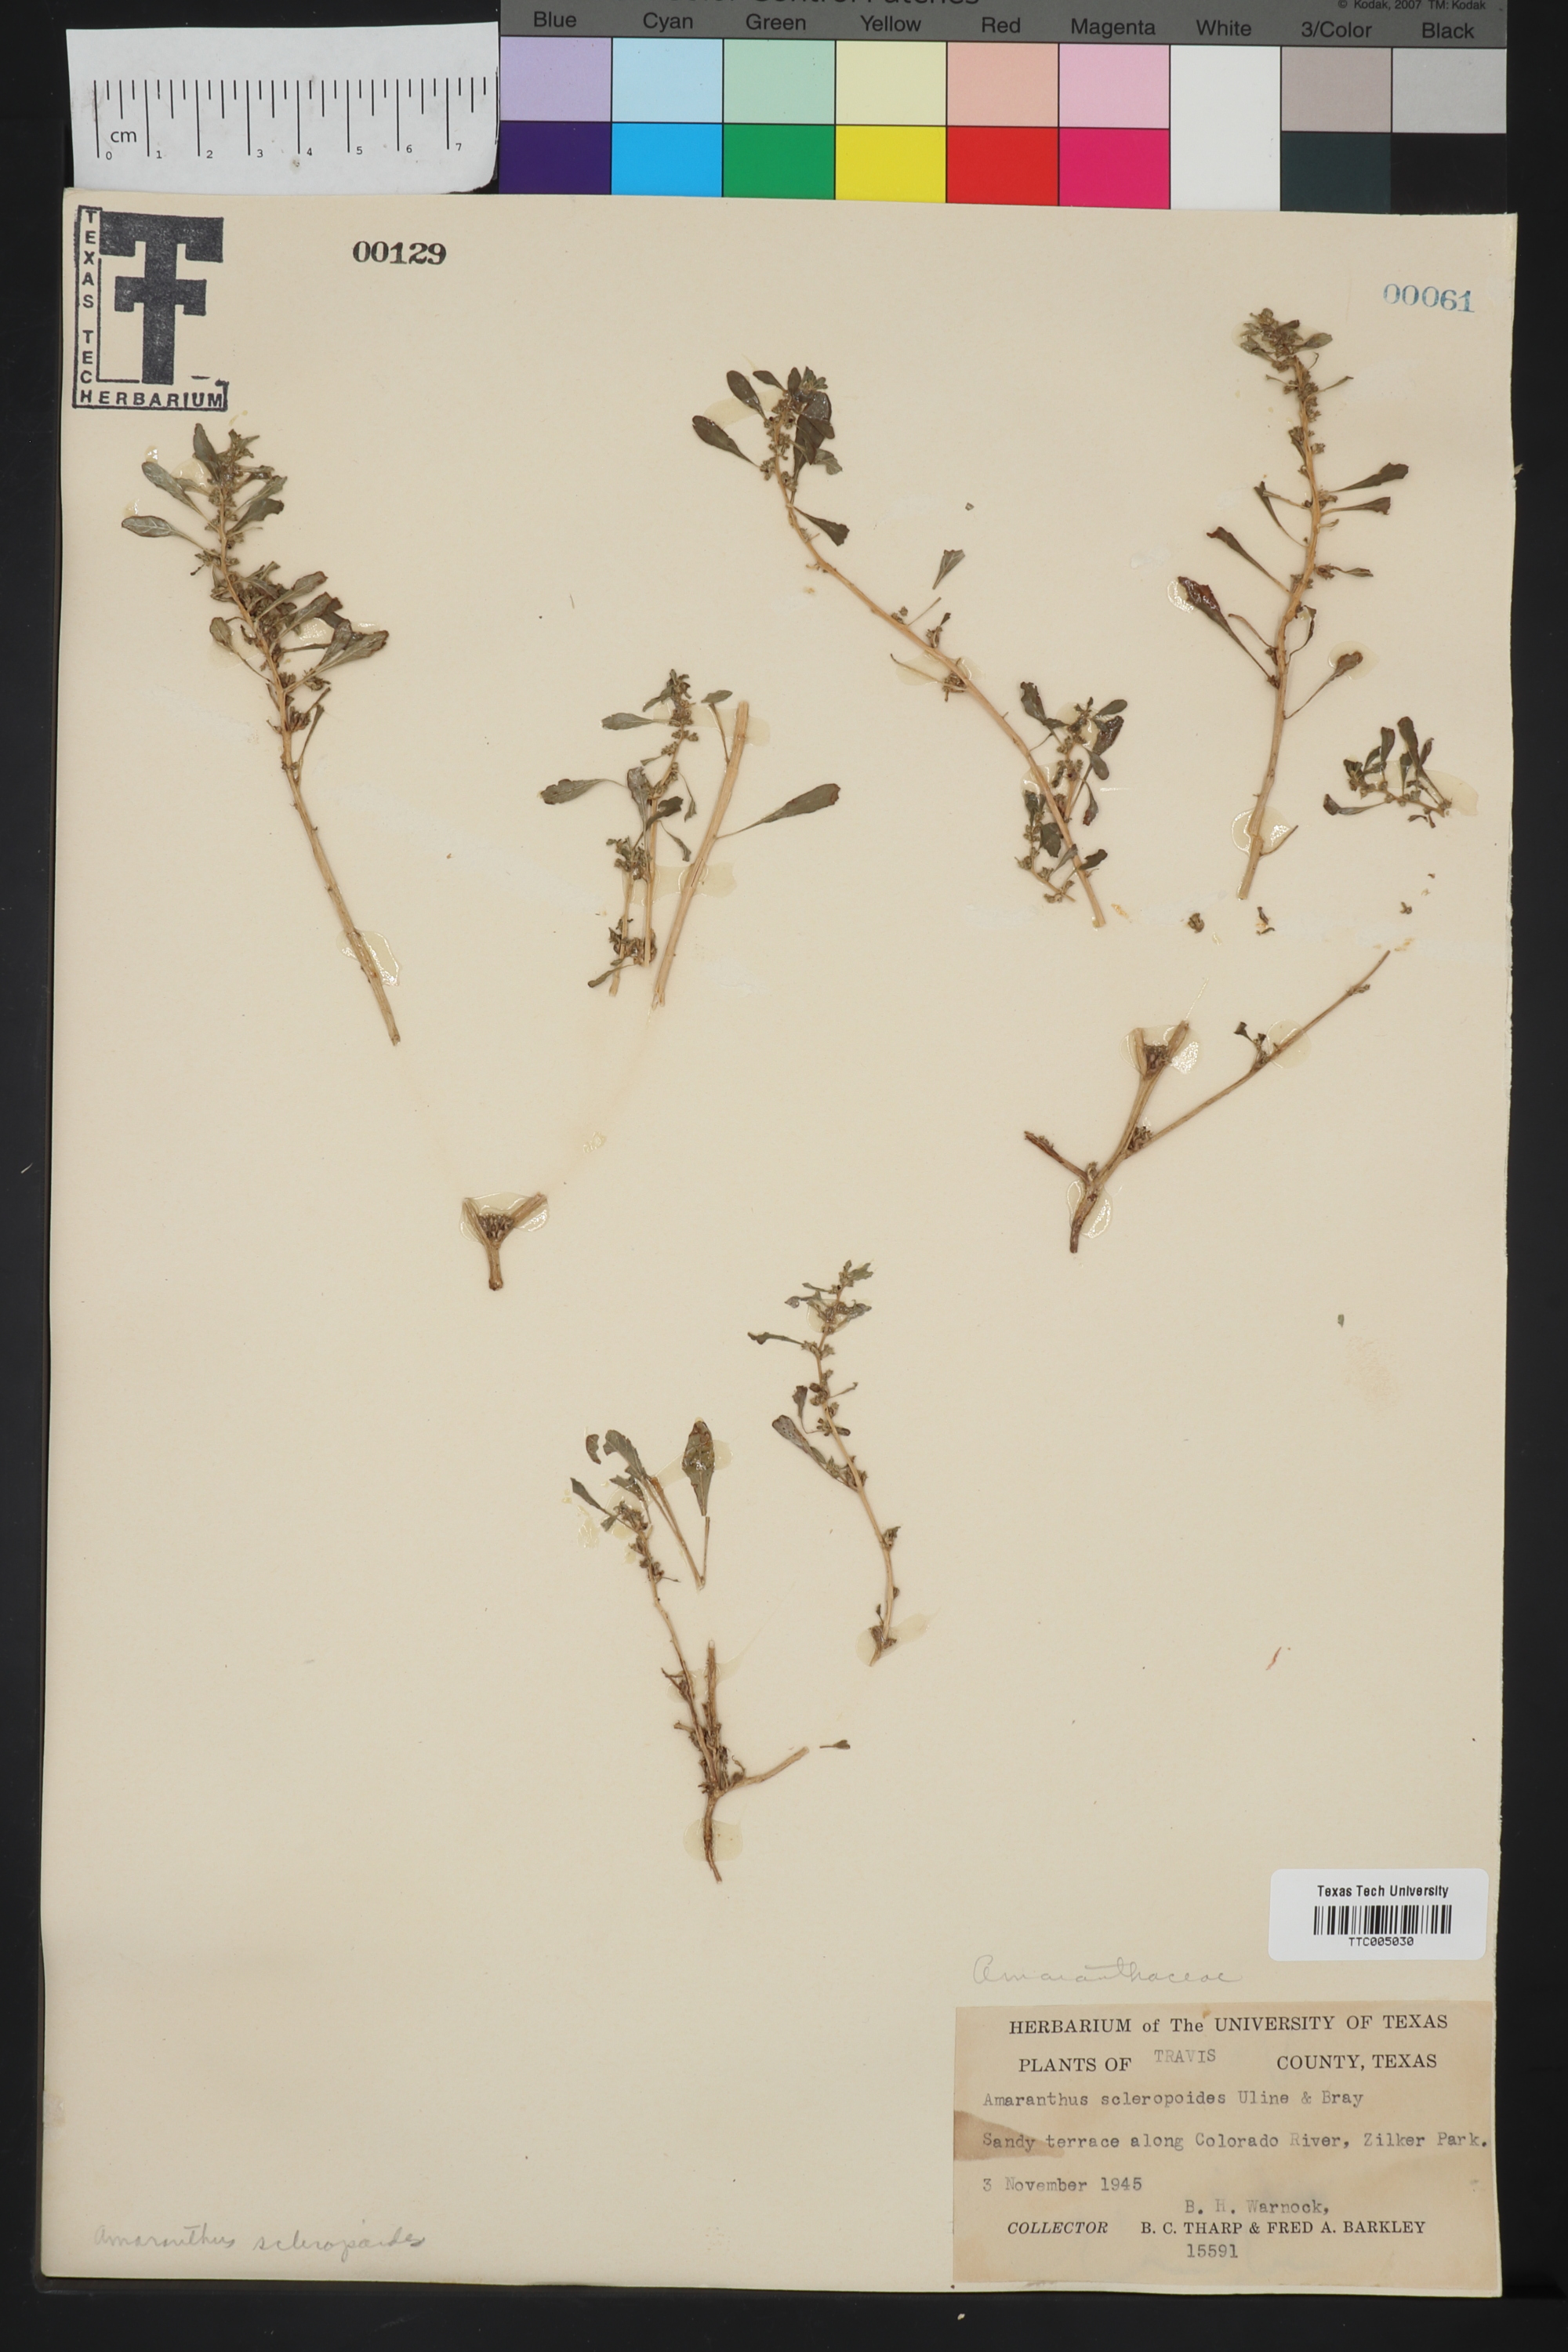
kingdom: Plantae
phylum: Tracheophyta
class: Magnoliopsida
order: Caryophyllales
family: Amaranthaceae
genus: Amaranthus
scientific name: Amaranthus scleropoides
